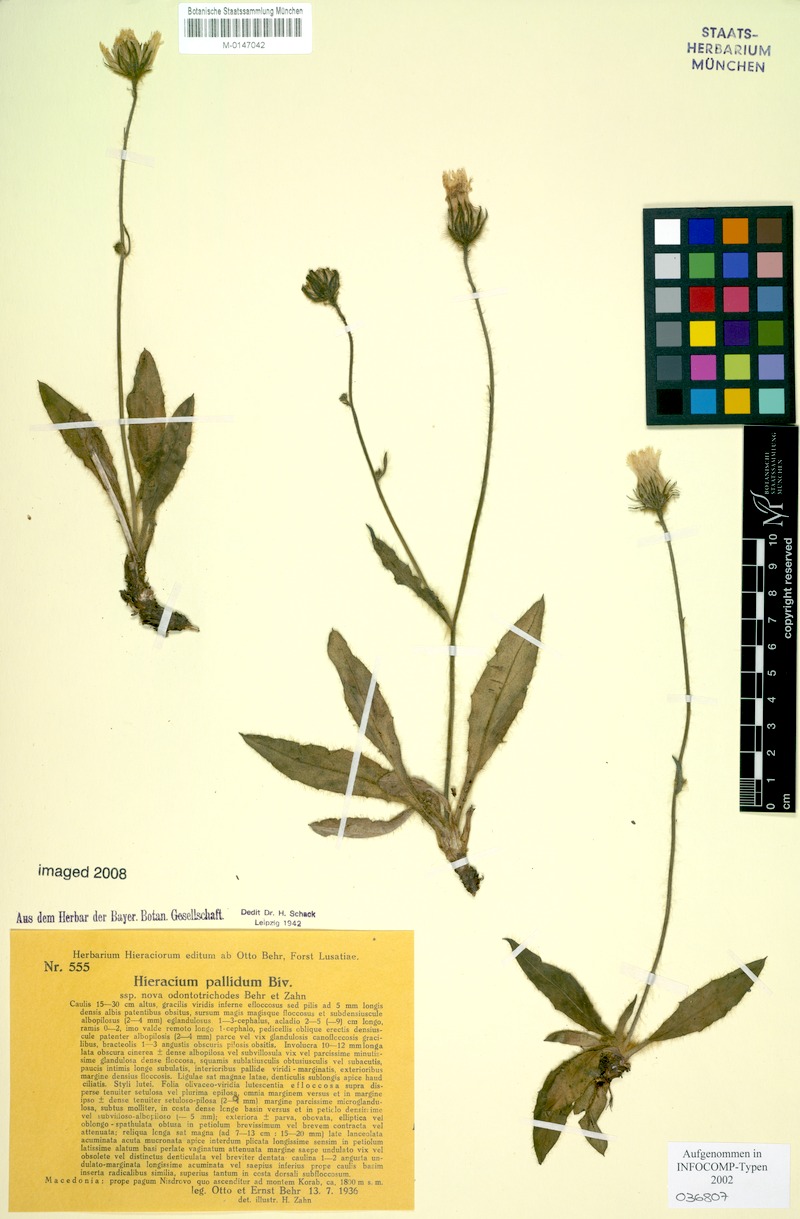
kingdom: Plantae
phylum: Tracheophyta
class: Magnoliopsida
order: Asterales
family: Asteraceae
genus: Hieracium
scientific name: Hieracium schmidtii
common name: Schmidt's hawkweed
